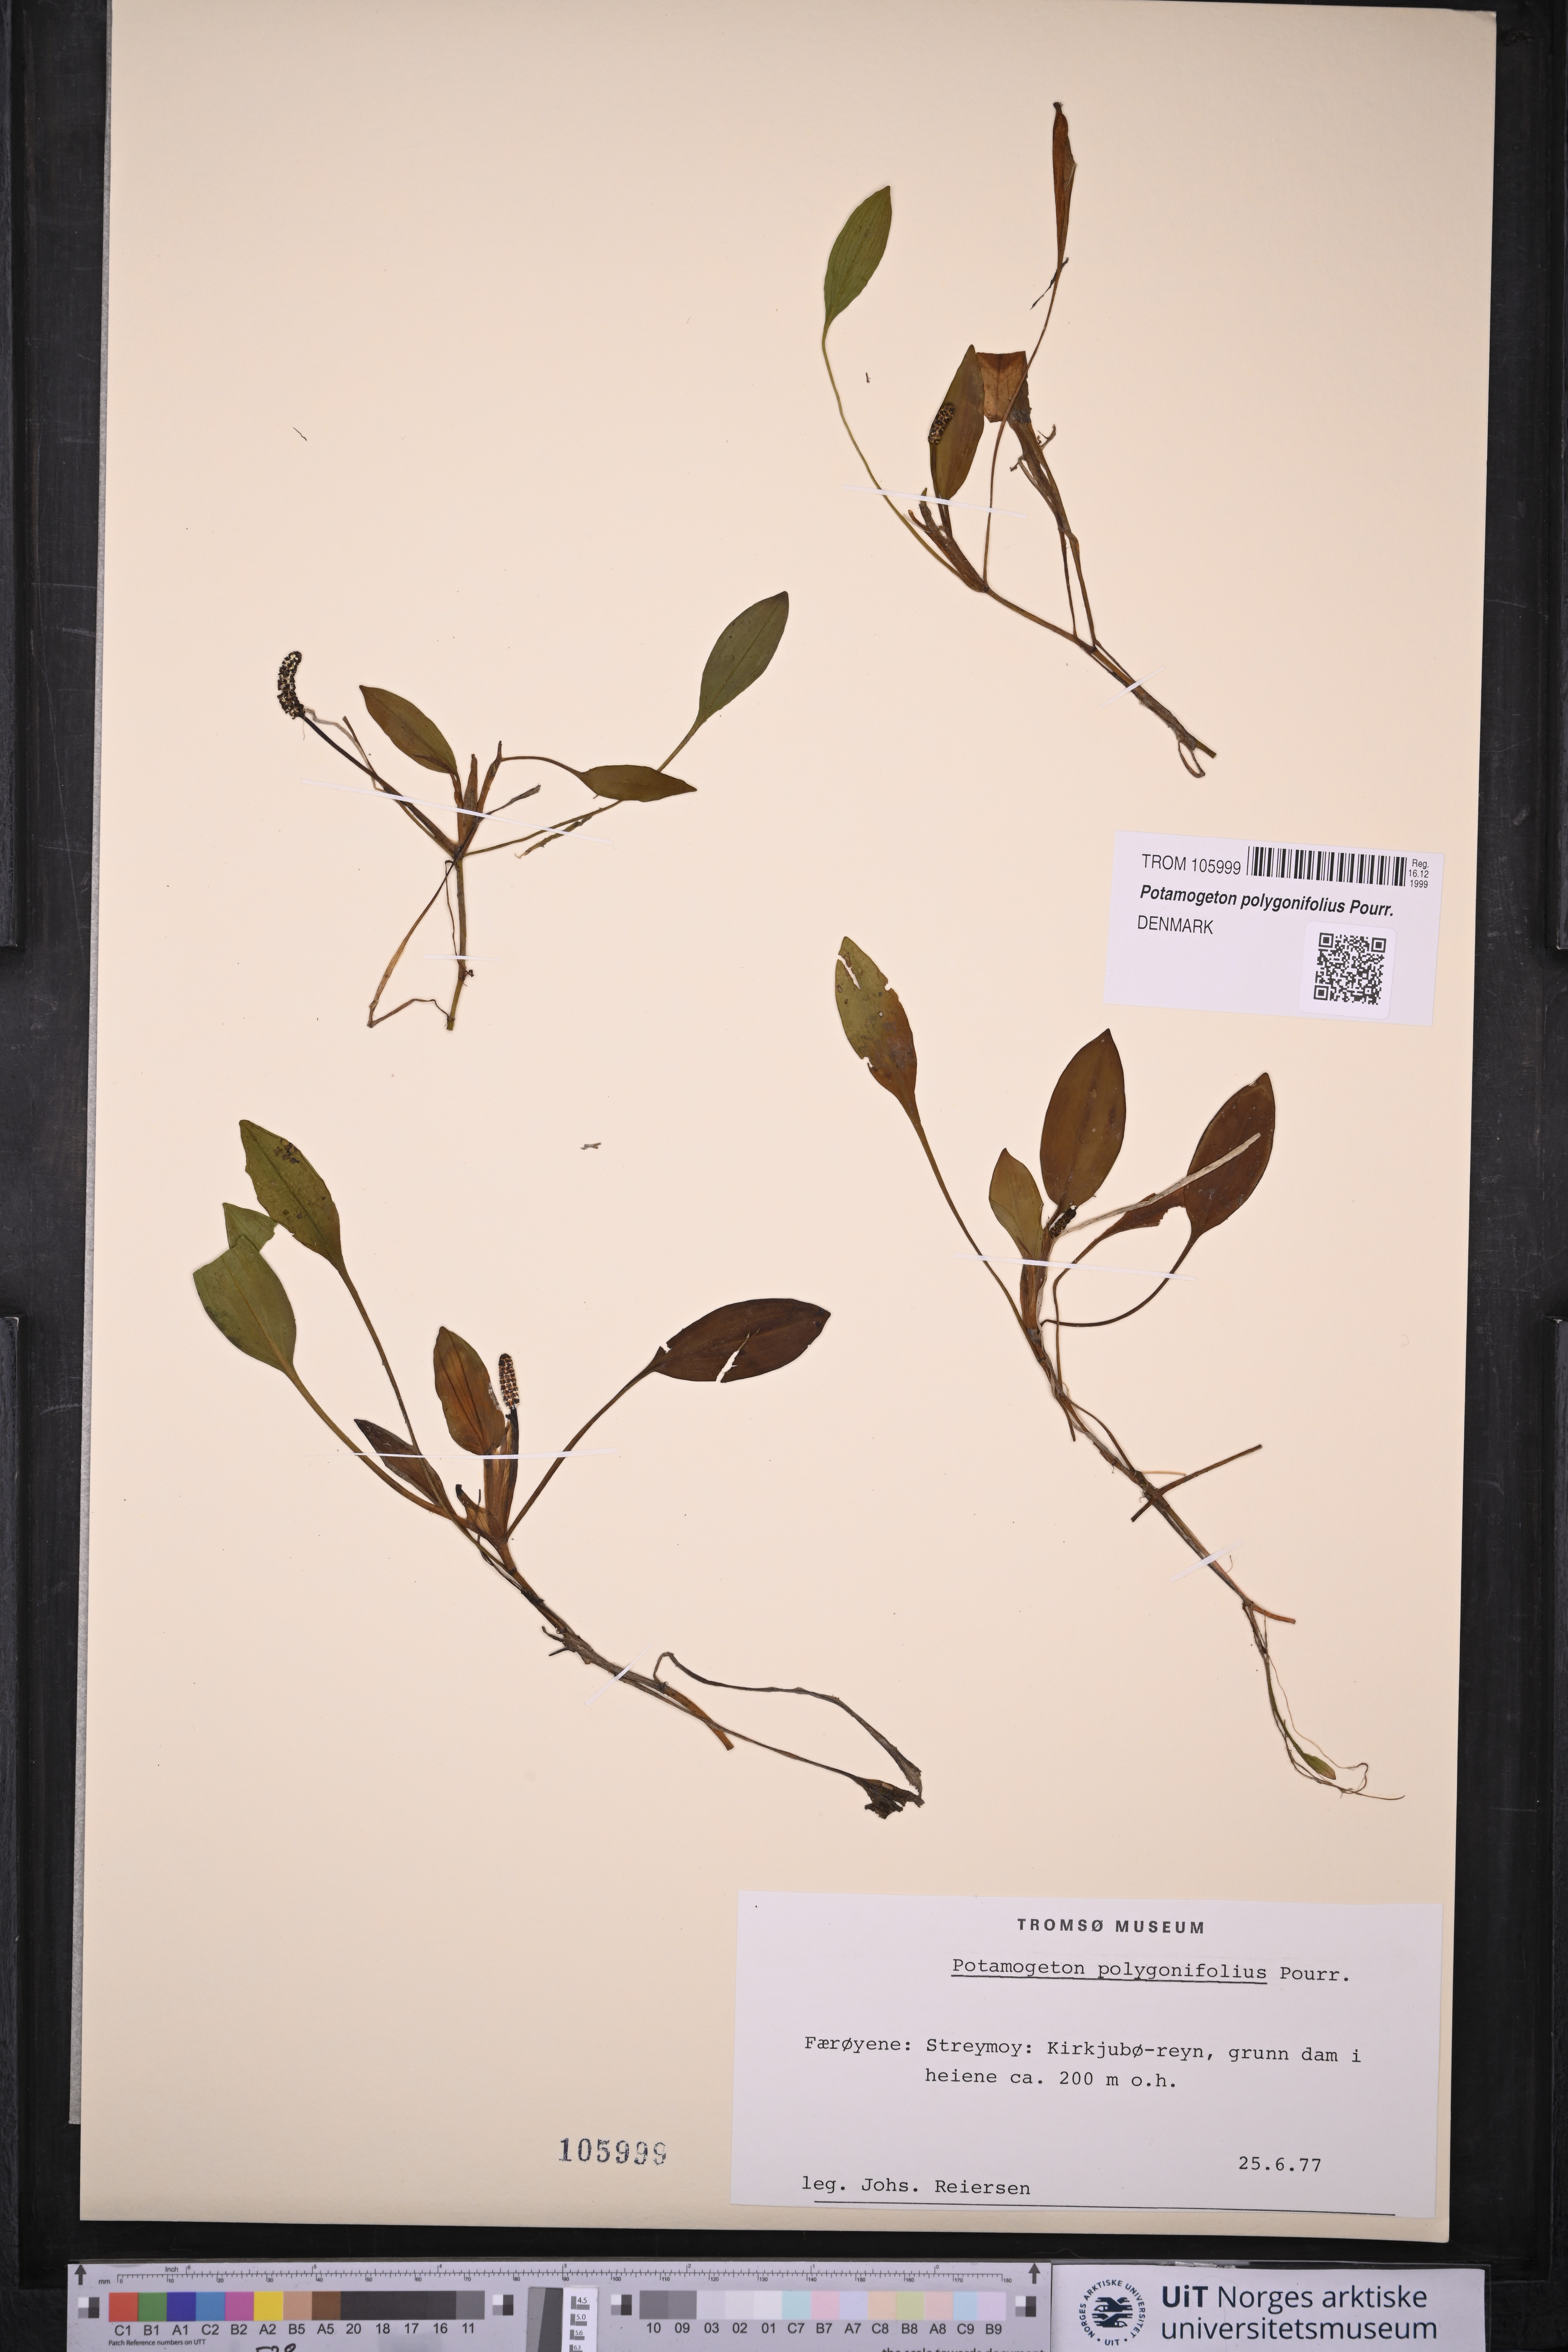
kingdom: Plantae
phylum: Tracheophyta
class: Liliopsida
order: Alismatales
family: Potamogetonaceae
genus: Potamogeton
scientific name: Potamogeton polygonifolius
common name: Bog pondweed
